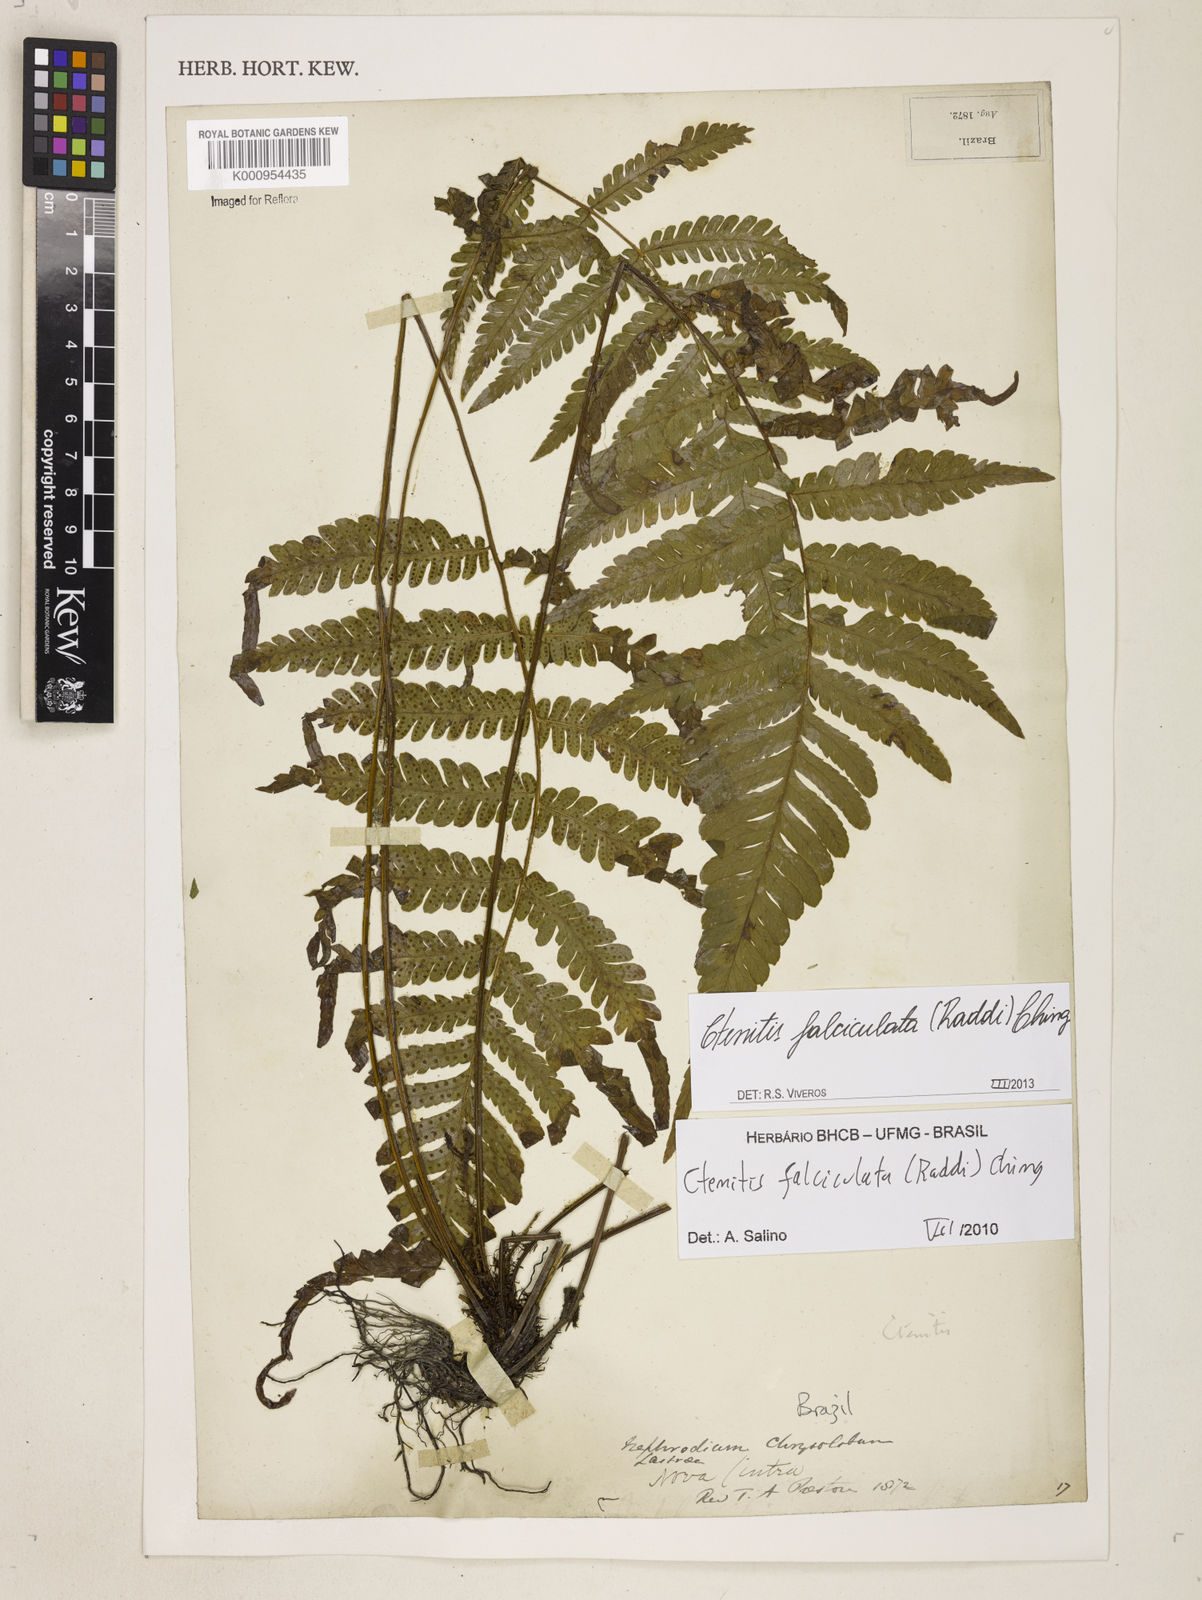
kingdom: Plantae
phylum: Tracheophyta
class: Polypodiopsida
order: Polypodiales
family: Dryopteridaceae
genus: Ctenitis
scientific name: Ctenitis falciculata
